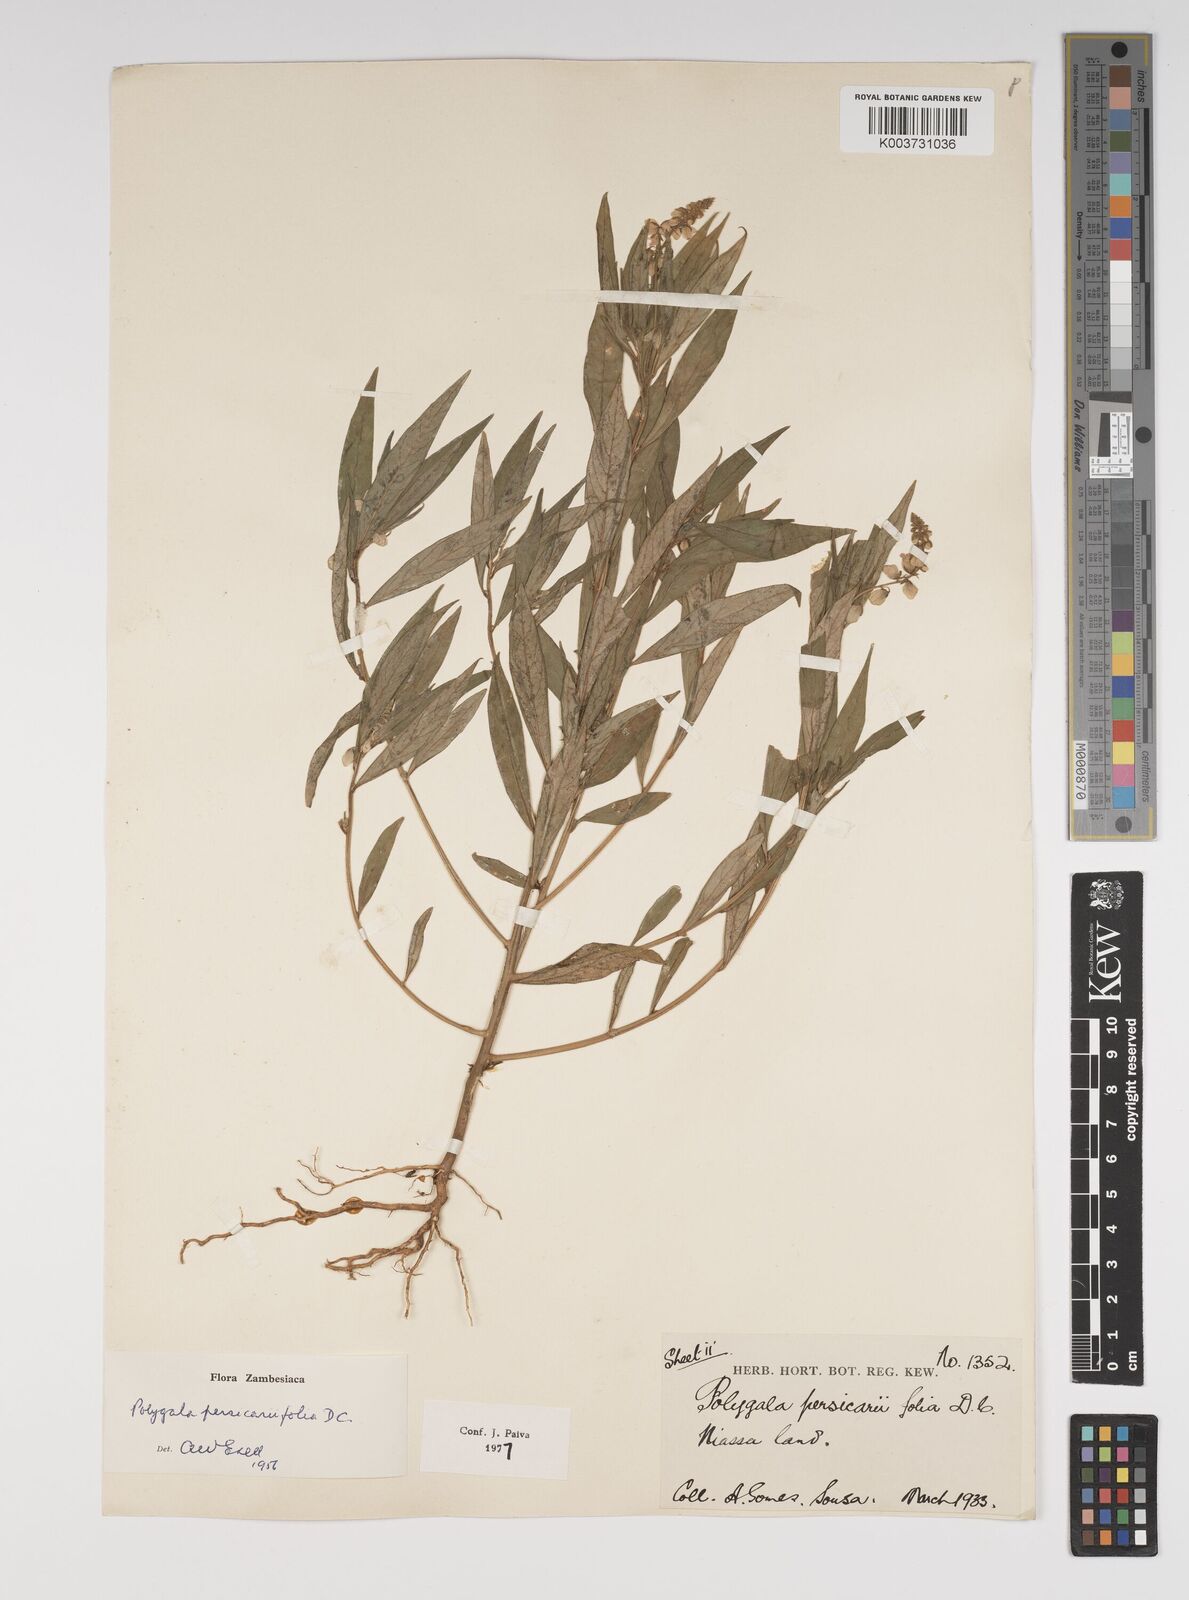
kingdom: Plantae
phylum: Tracheophyta
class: Magnoliopsida
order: Fabales
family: Polygalaceae
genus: Polygala
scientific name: Polygala persicariifolia
